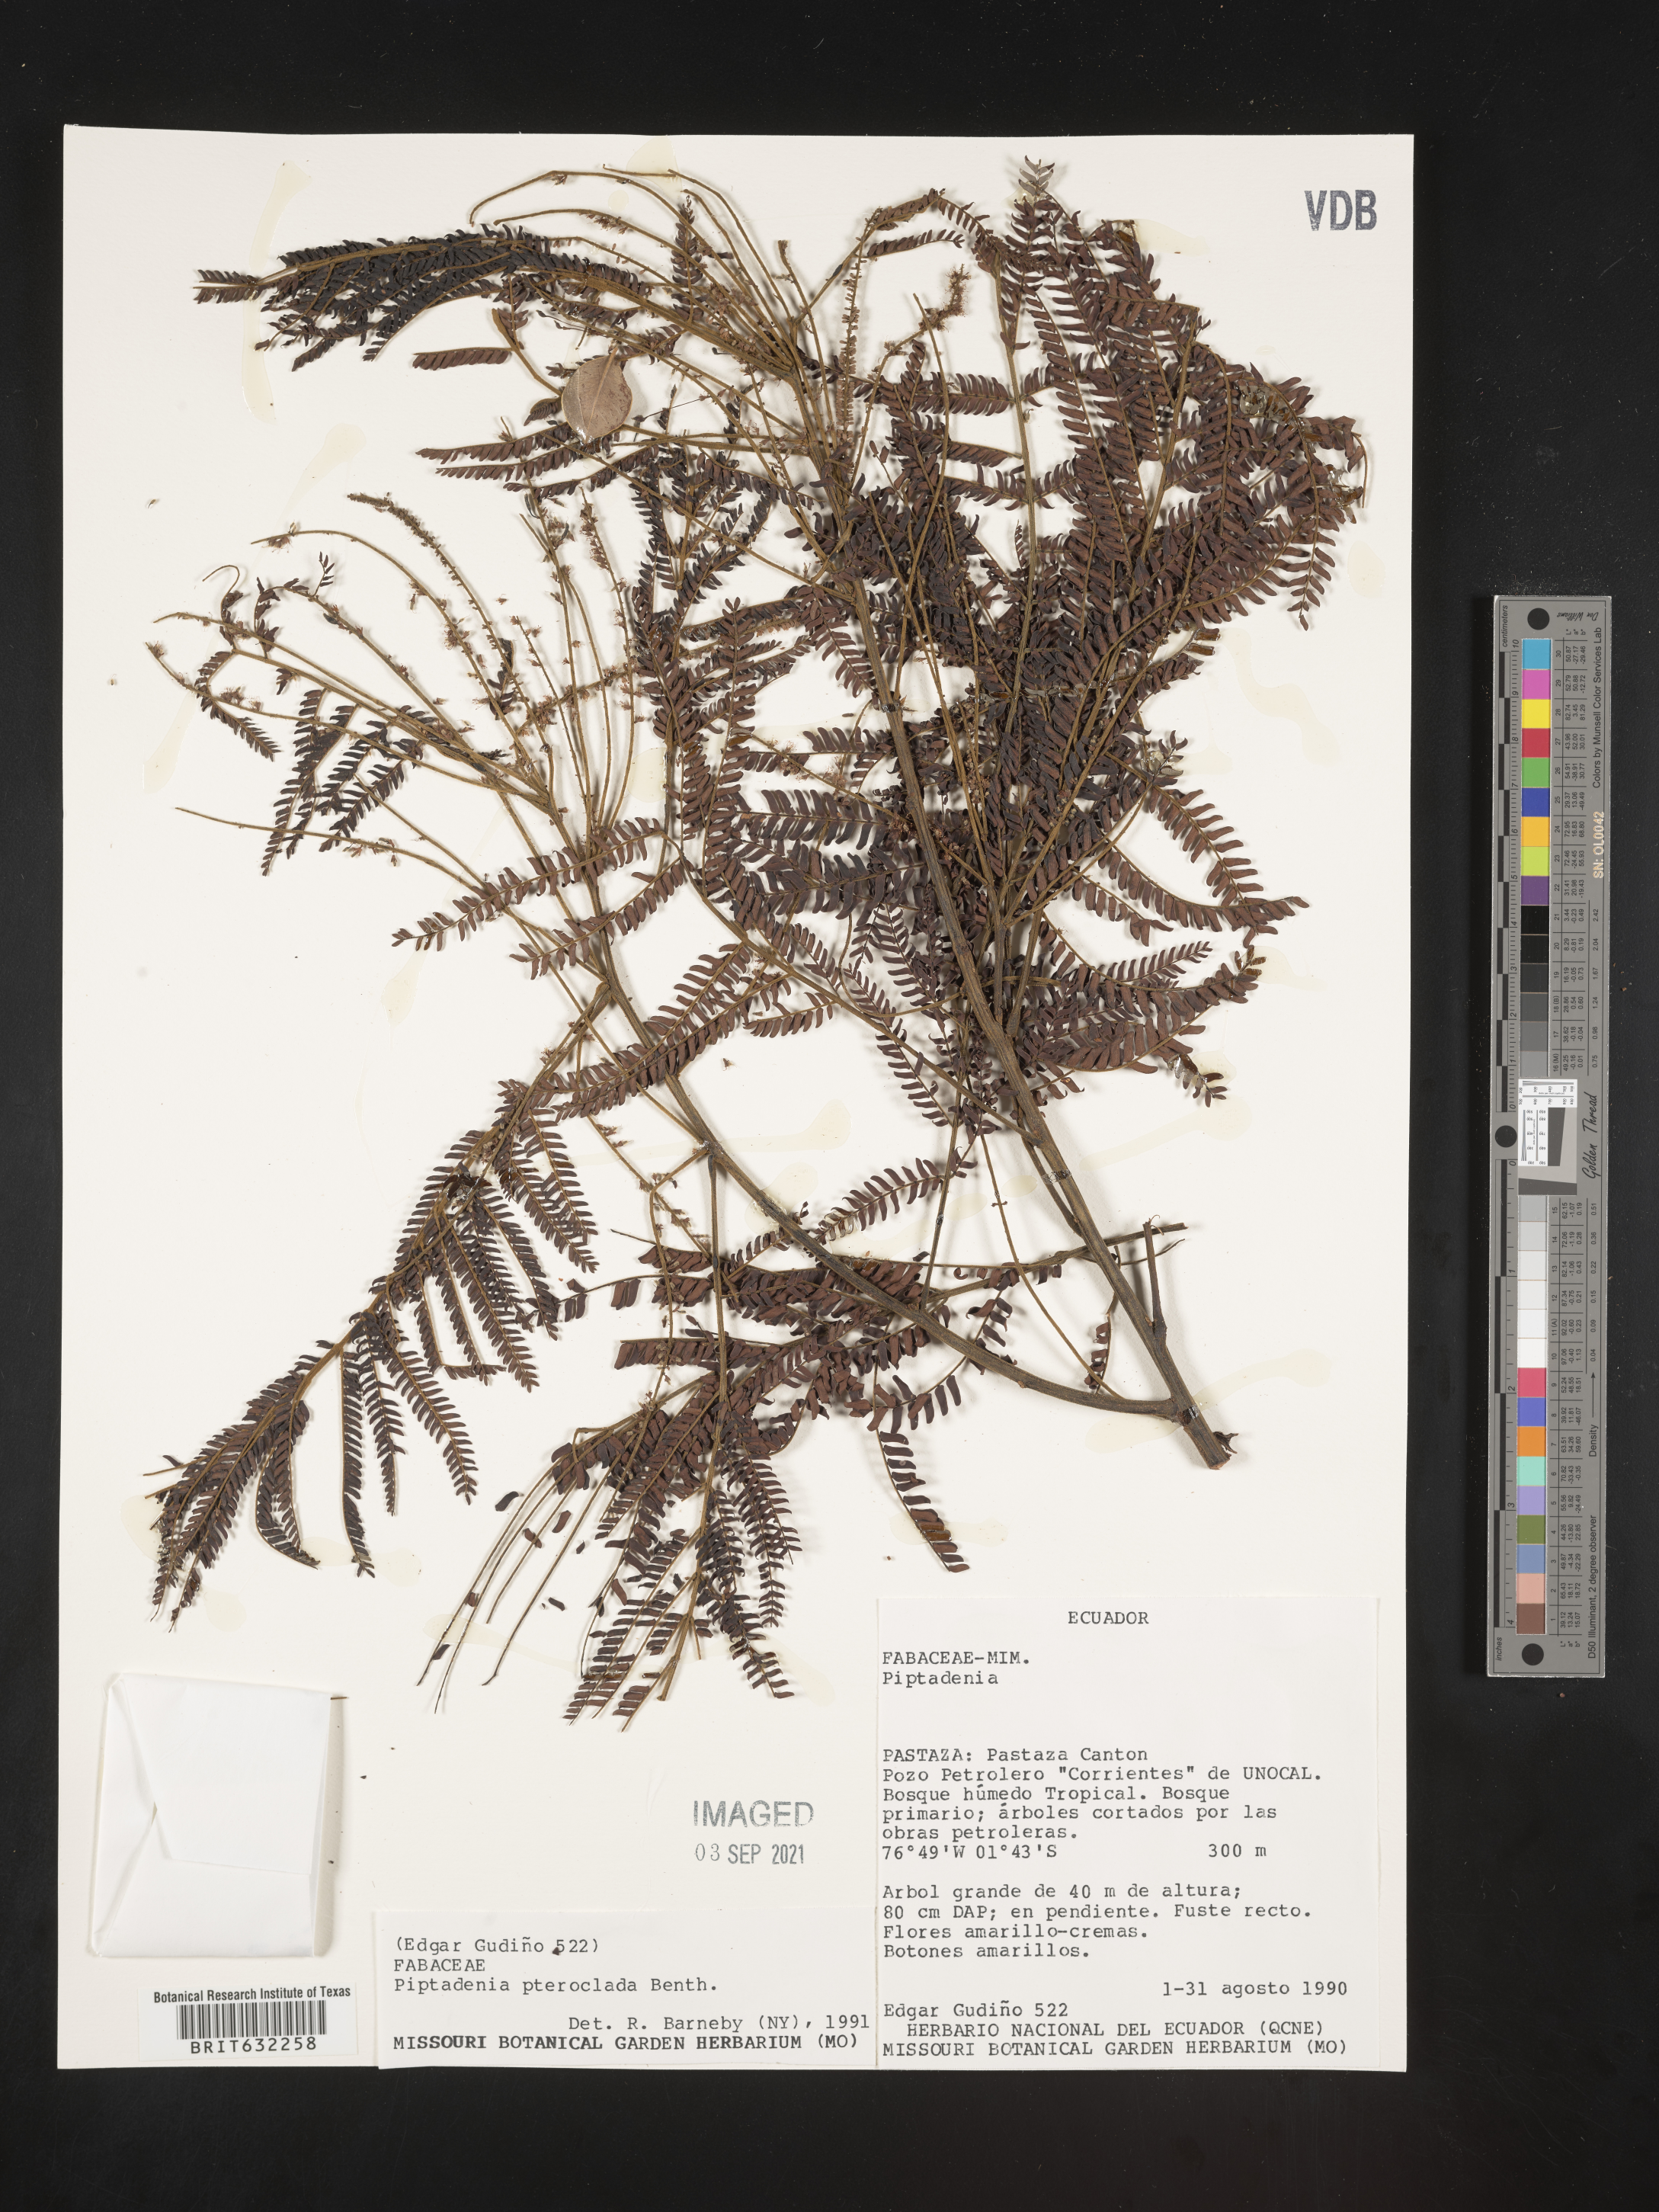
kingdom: Plantae
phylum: Tracheophyta
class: Magnoliopsida
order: Fabales
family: Fabaceae
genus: Piptadenia
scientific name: Piptadenia
